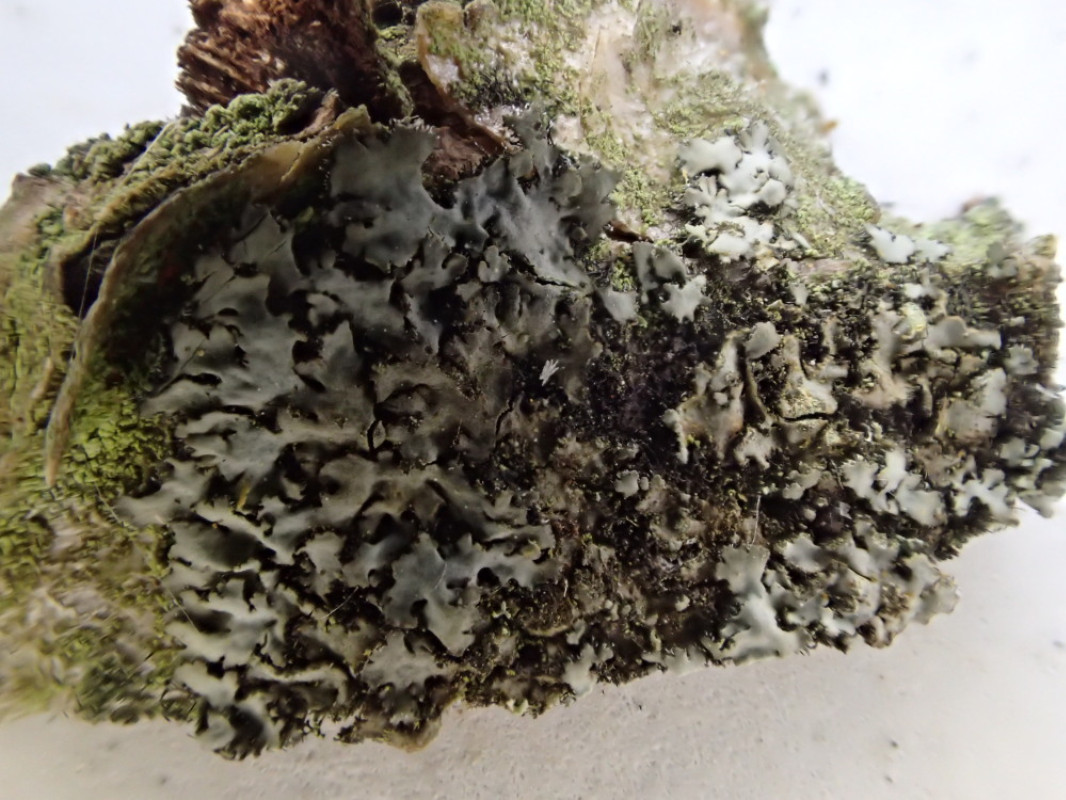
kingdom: Fungi
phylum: Ascomycota
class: Lecanoromycetes
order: Caliciales
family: Physciaceae
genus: Phaeophyscia
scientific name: Phaeophyscia orbicularis
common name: grågrøn rosetlav
